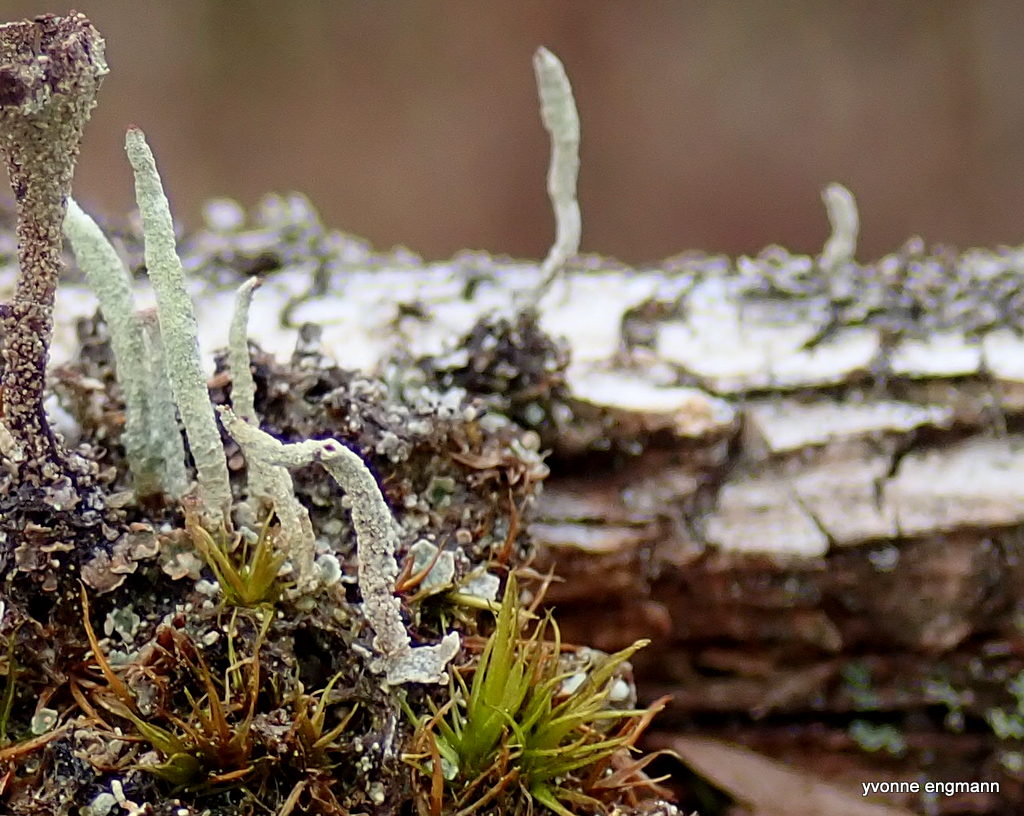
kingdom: Fungi
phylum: Ascomycota
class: Lecanoromycetes
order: Lecanorales
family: Cladoniaceae
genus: Cladonia
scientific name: Cladonia glauca
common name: grågrøn bægerlav
